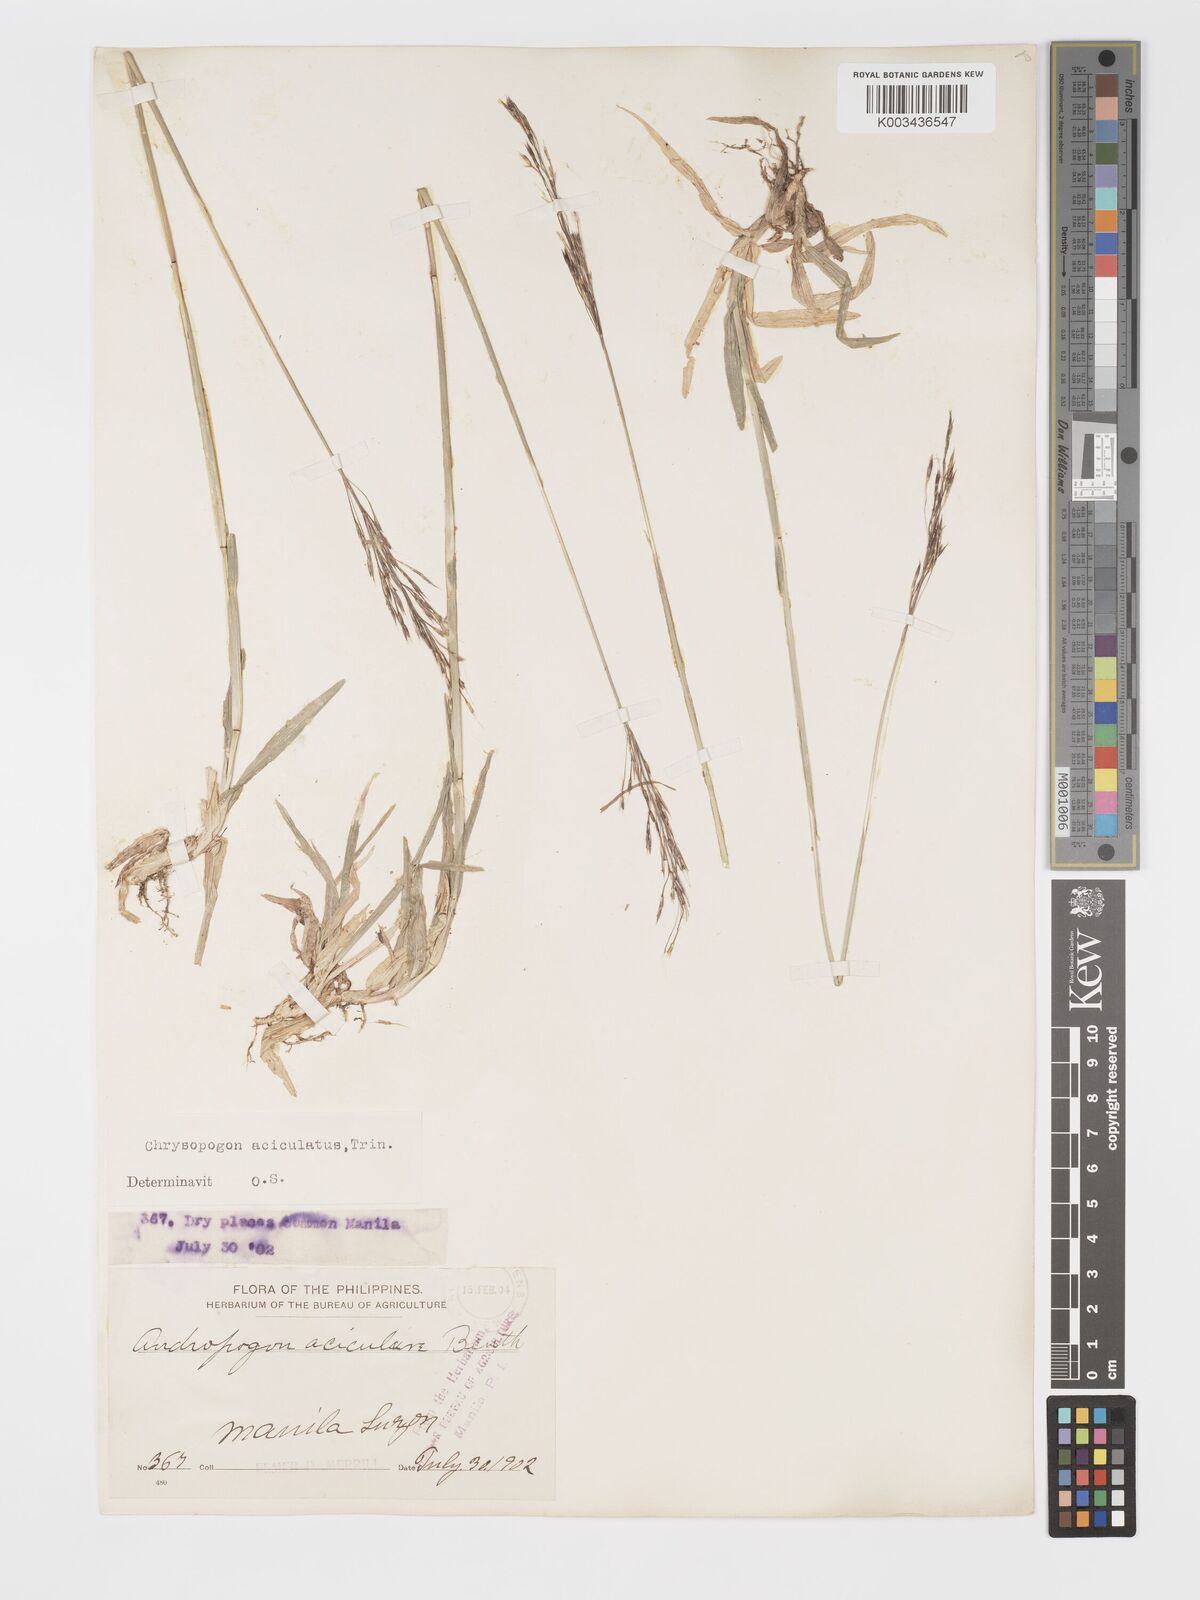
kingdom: Plantae
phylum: Tracheophyta
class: Liliopsida
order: Poales
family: Poaceae
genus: Chrysopogon
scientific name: Chrysopogon aciculatus
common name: Pilipiliula
